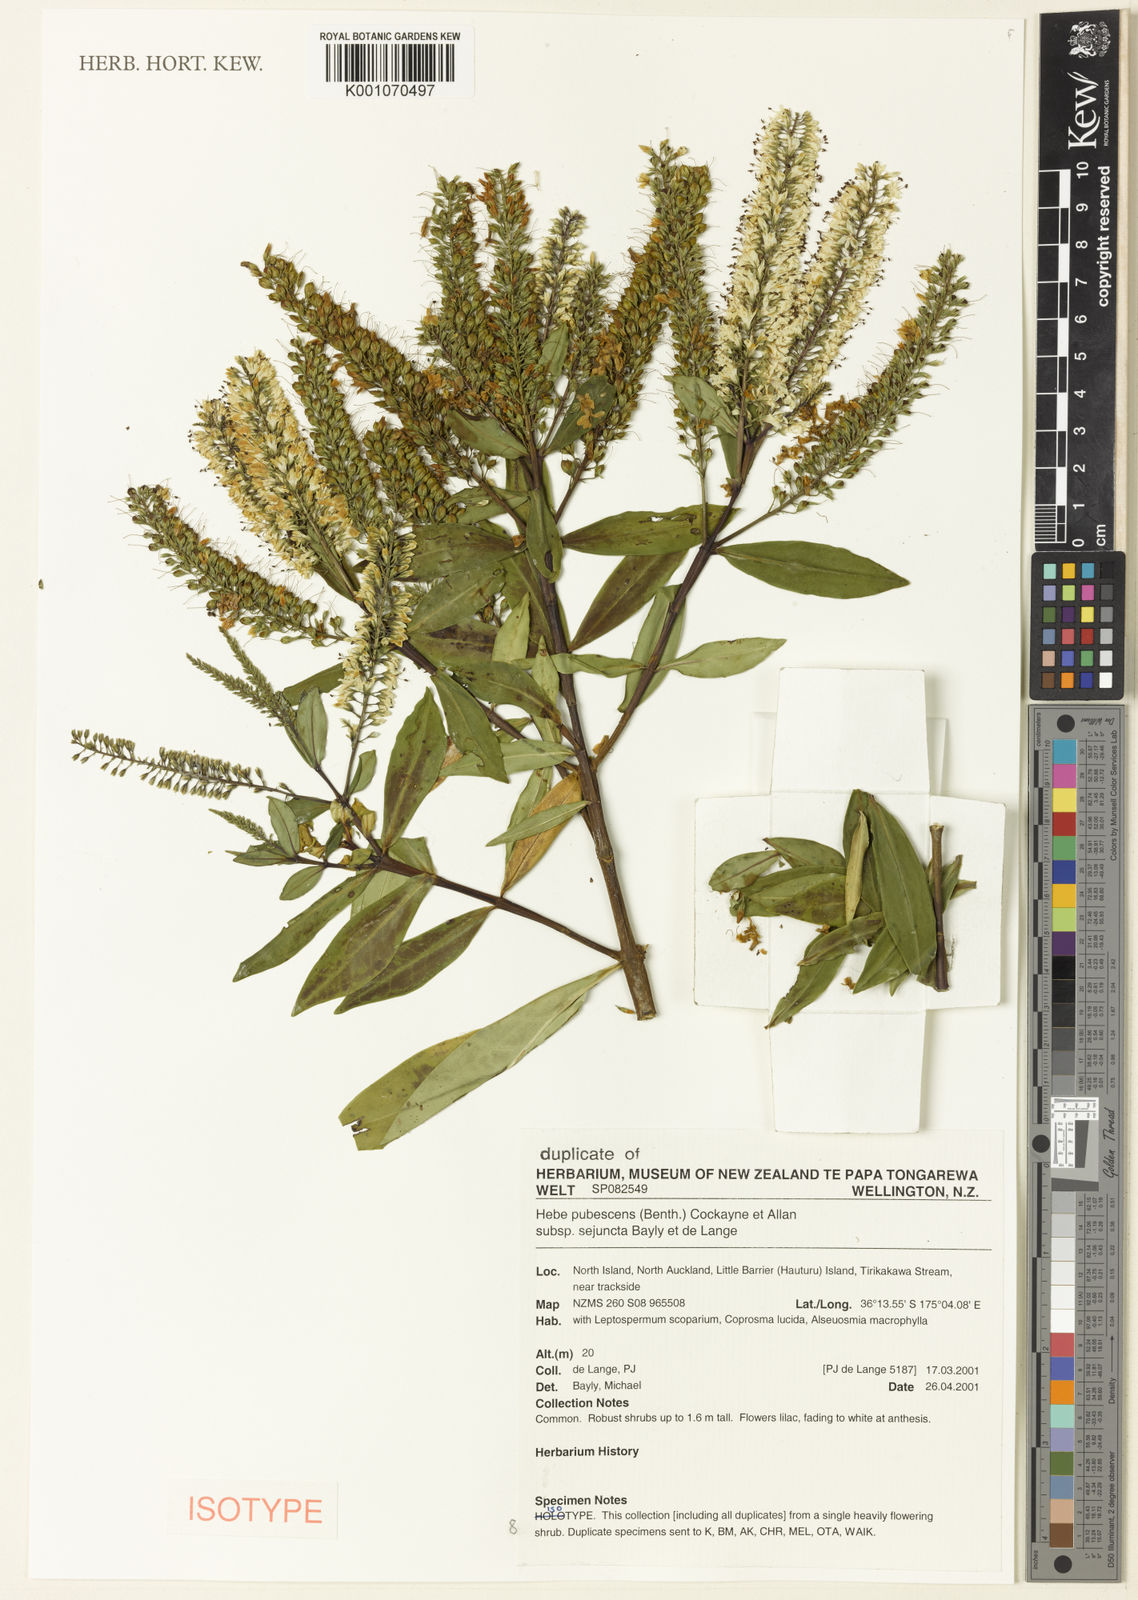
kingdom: Plantae
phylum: Tracheophyta
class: Magnoliopsida
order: Lamiales
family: Plantaginaceae
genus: Veronica
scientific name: Veronica pubescens
